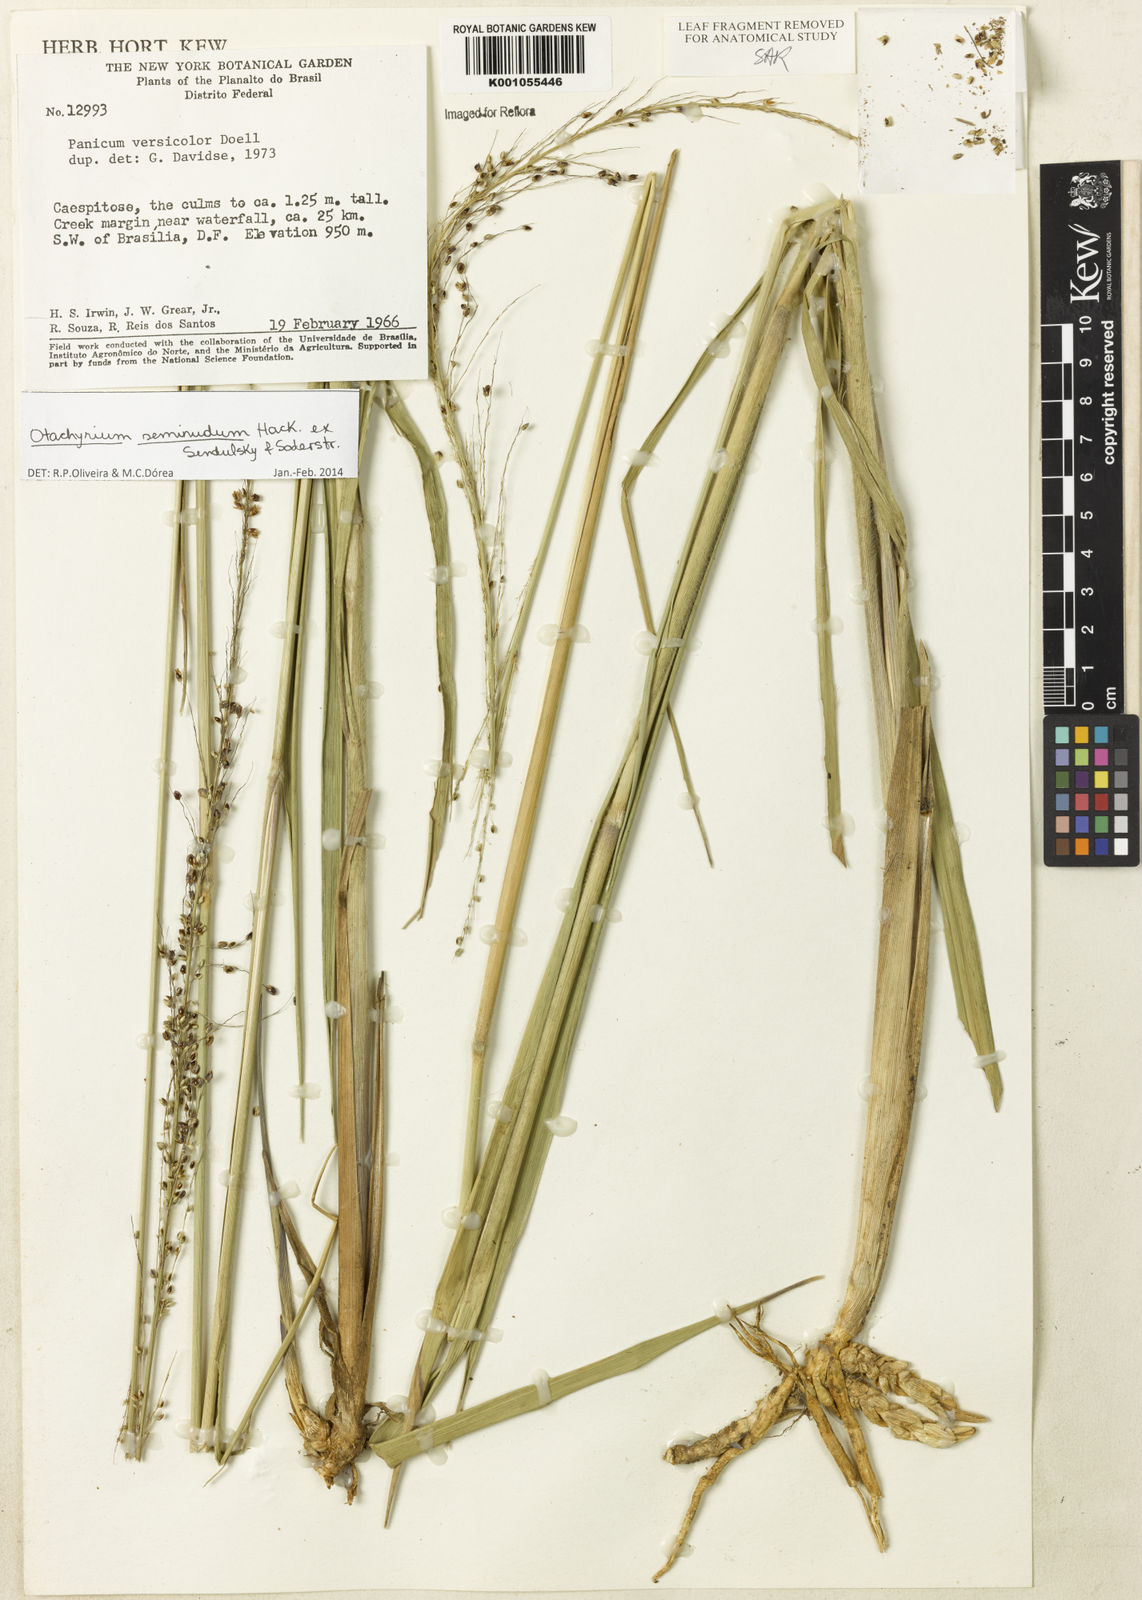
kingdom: Plantae
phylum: Tracheophyta
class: Liliopsida
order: Poales
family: Poaceae
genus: Otachyrium
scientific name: Otachyrium seminudum
